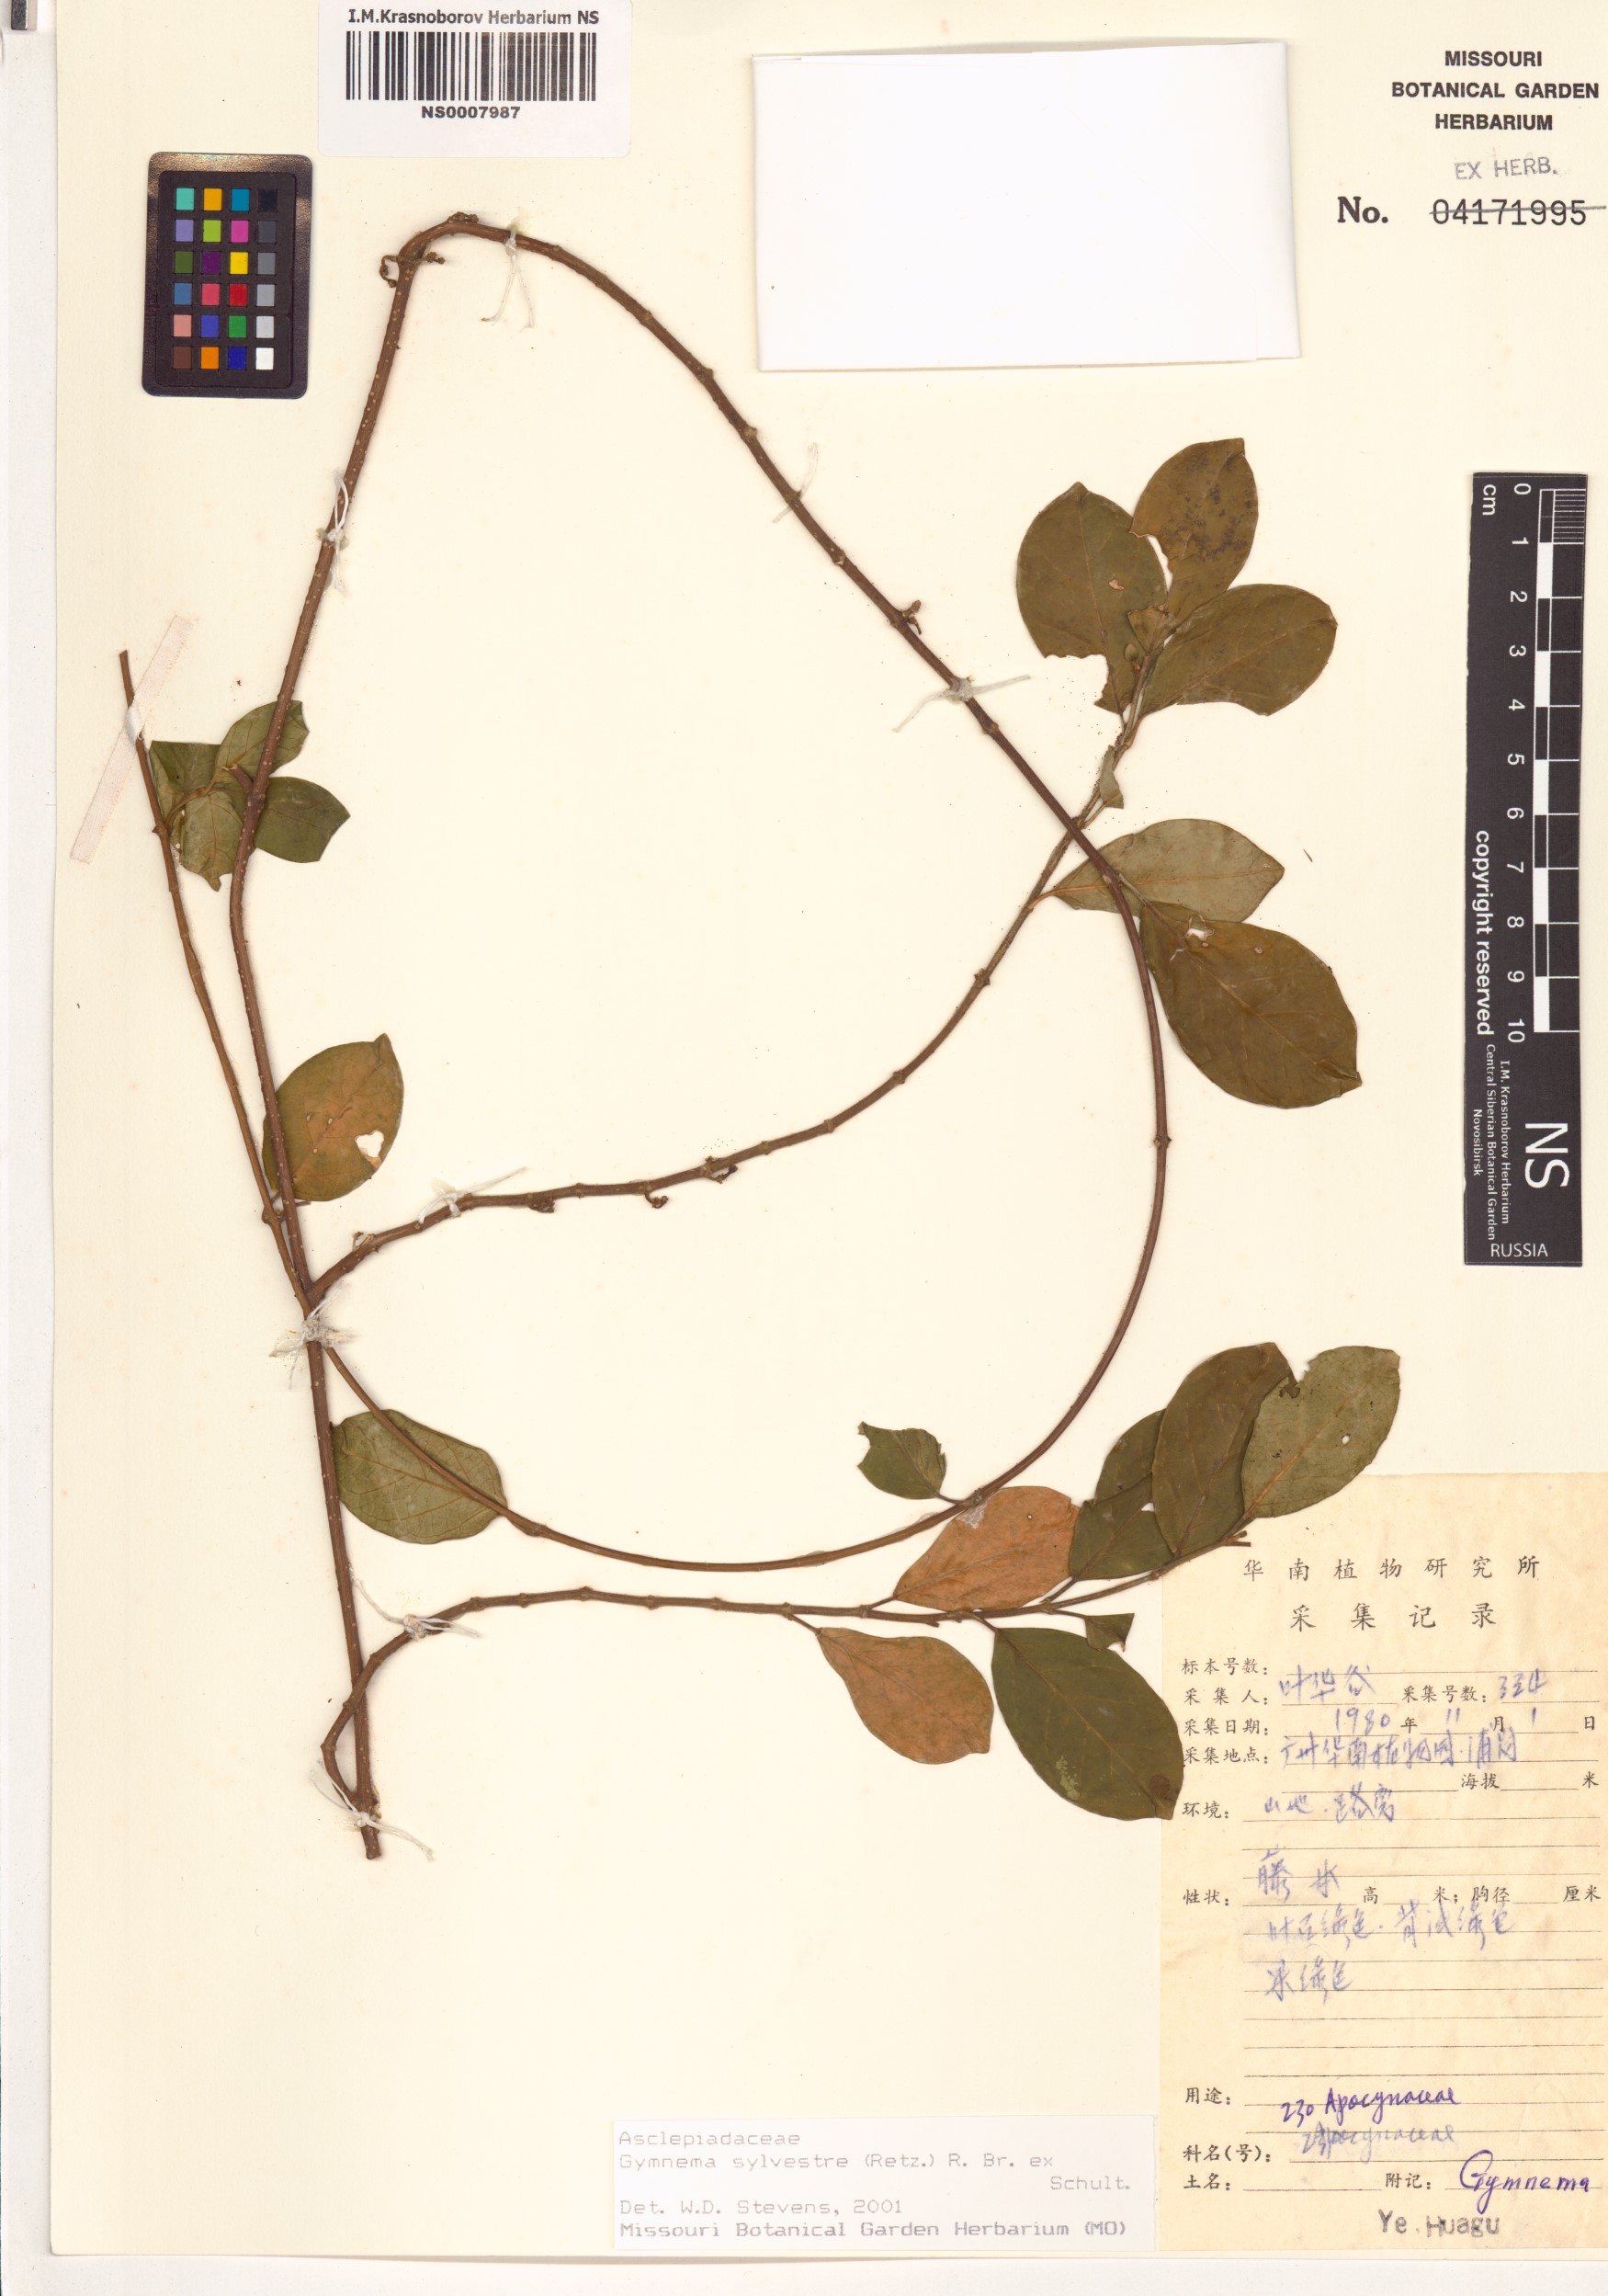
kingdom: Plantae
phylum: Tracheophyta
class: Magnoliopsida
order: Gentianales
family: Apocynaceae
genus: Gymnema
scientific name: Gymnema sylvestre
